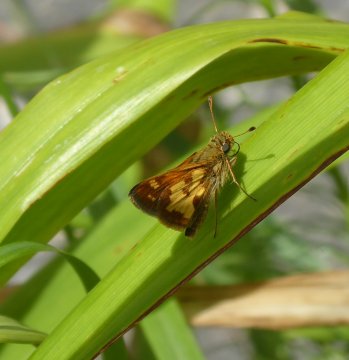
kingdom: Animalia
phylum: Arthropoda
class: Insecta
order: Lepidoptera
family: Hesperiidae
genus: Polites
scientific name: Polites coras
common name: Peck's Skipper
